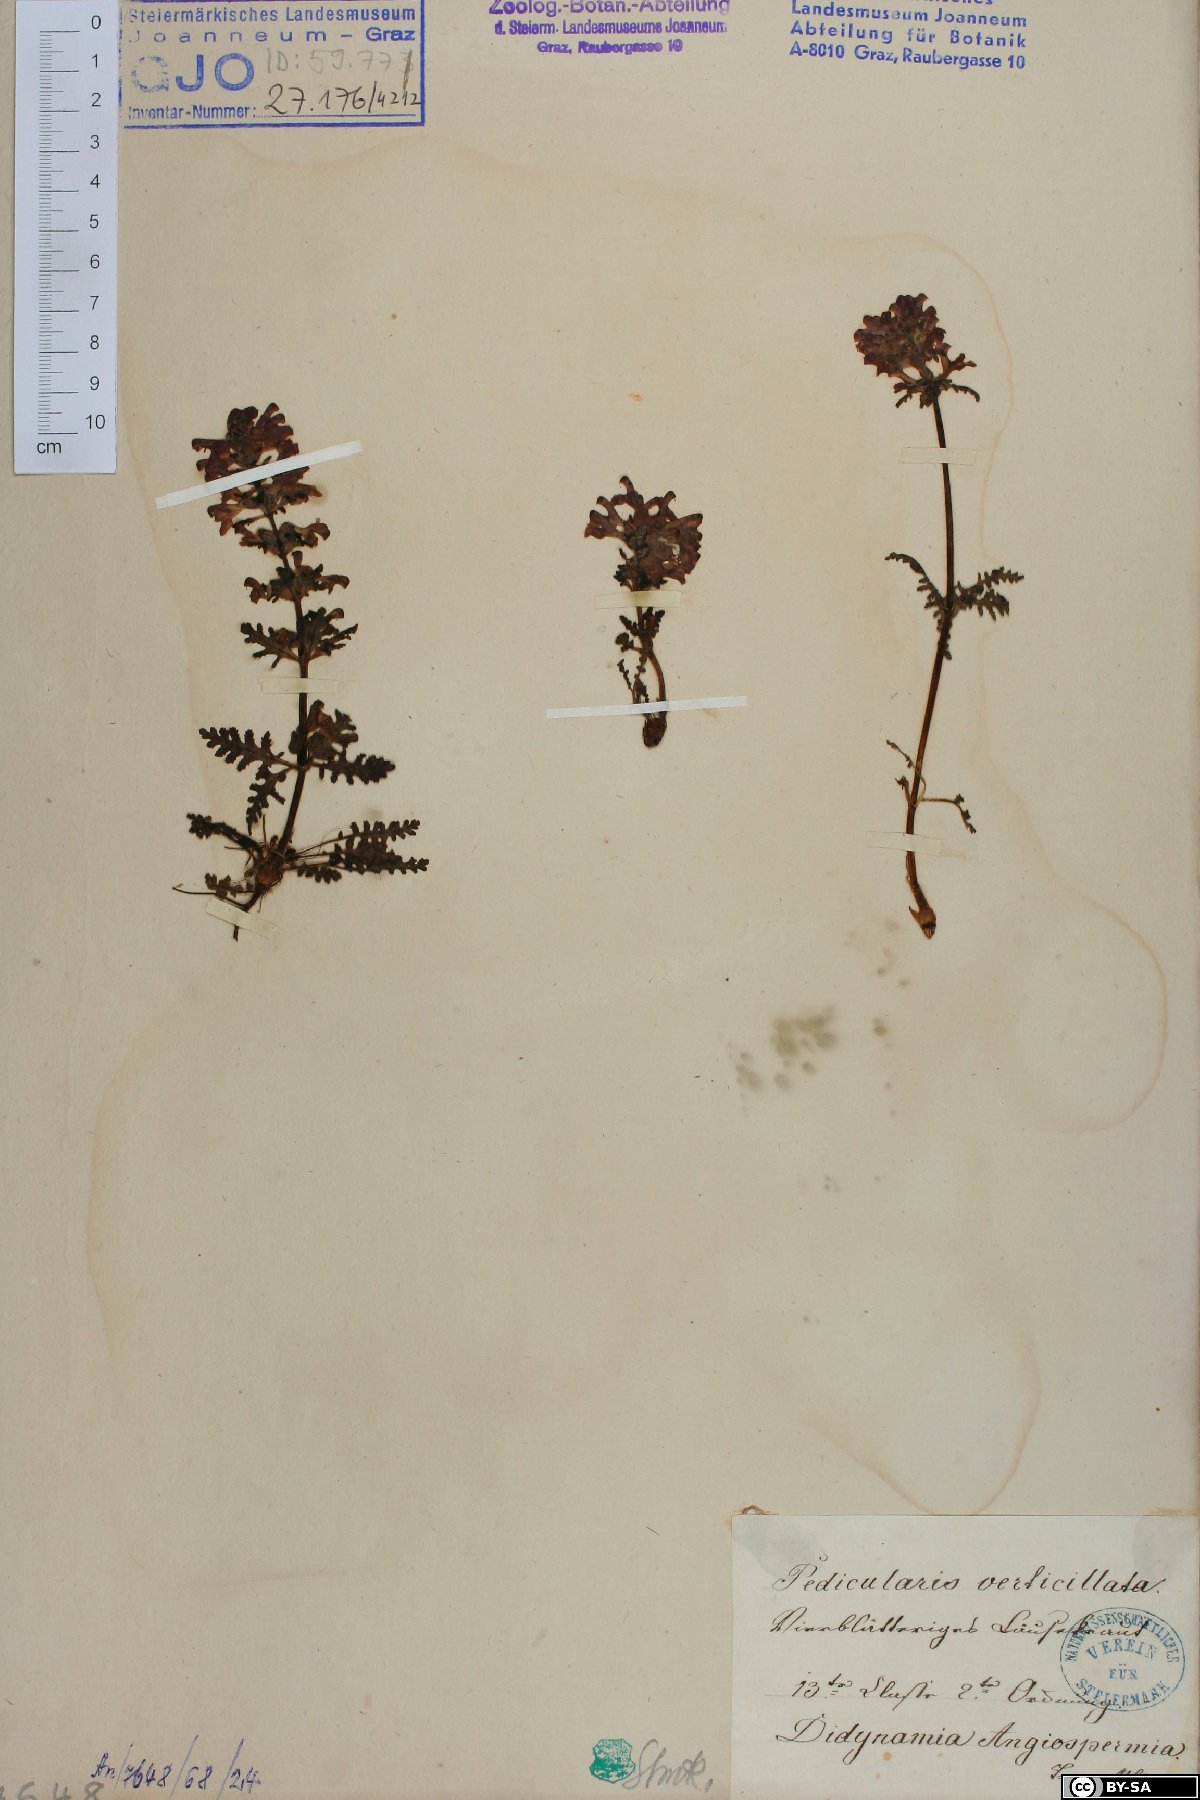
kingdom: Plantae
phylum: Tracheophyta
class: Magnoliopsida
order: Lamiales
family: Orobanchaceae
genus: Pedicularis
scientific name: Pedicularis verticillata
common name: Whorled lousewort
